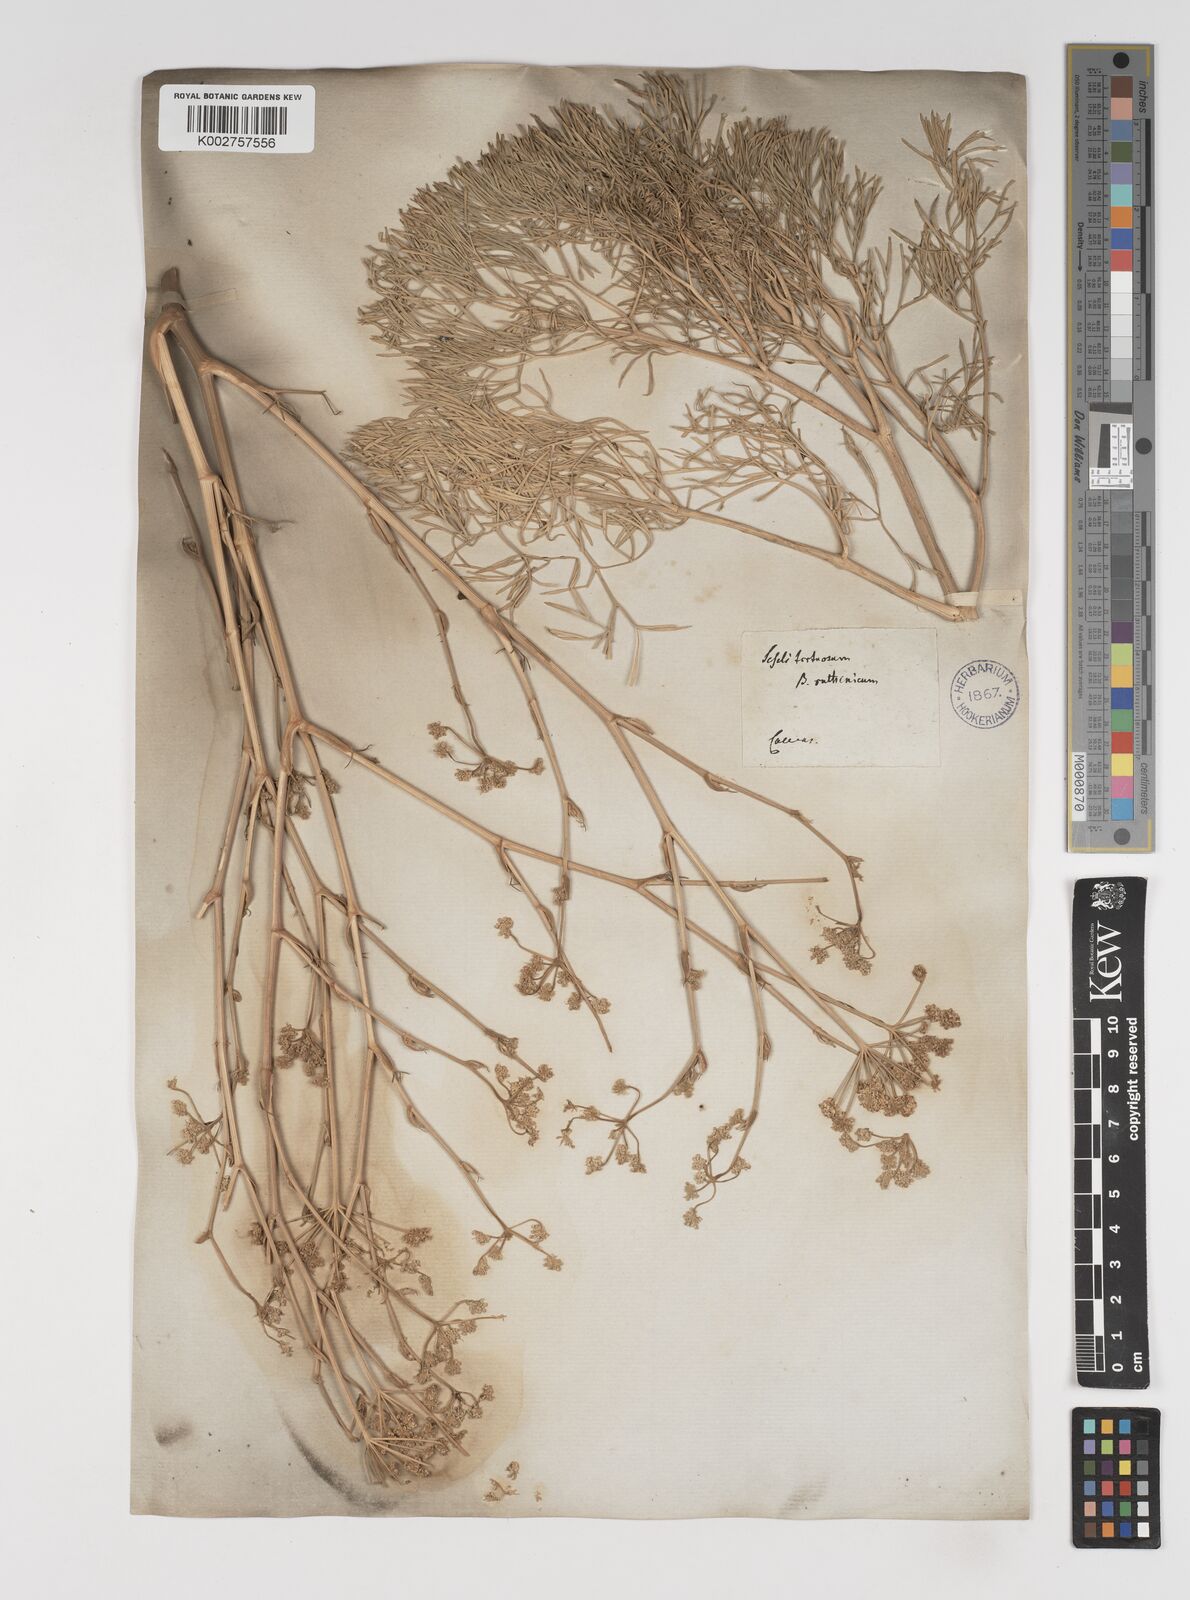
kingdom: Plantae
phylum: Tracheophyta
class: Magnoliopsida
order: Apiales
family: Apiaceae
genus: Seseli
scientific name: Seseli tortuosum
